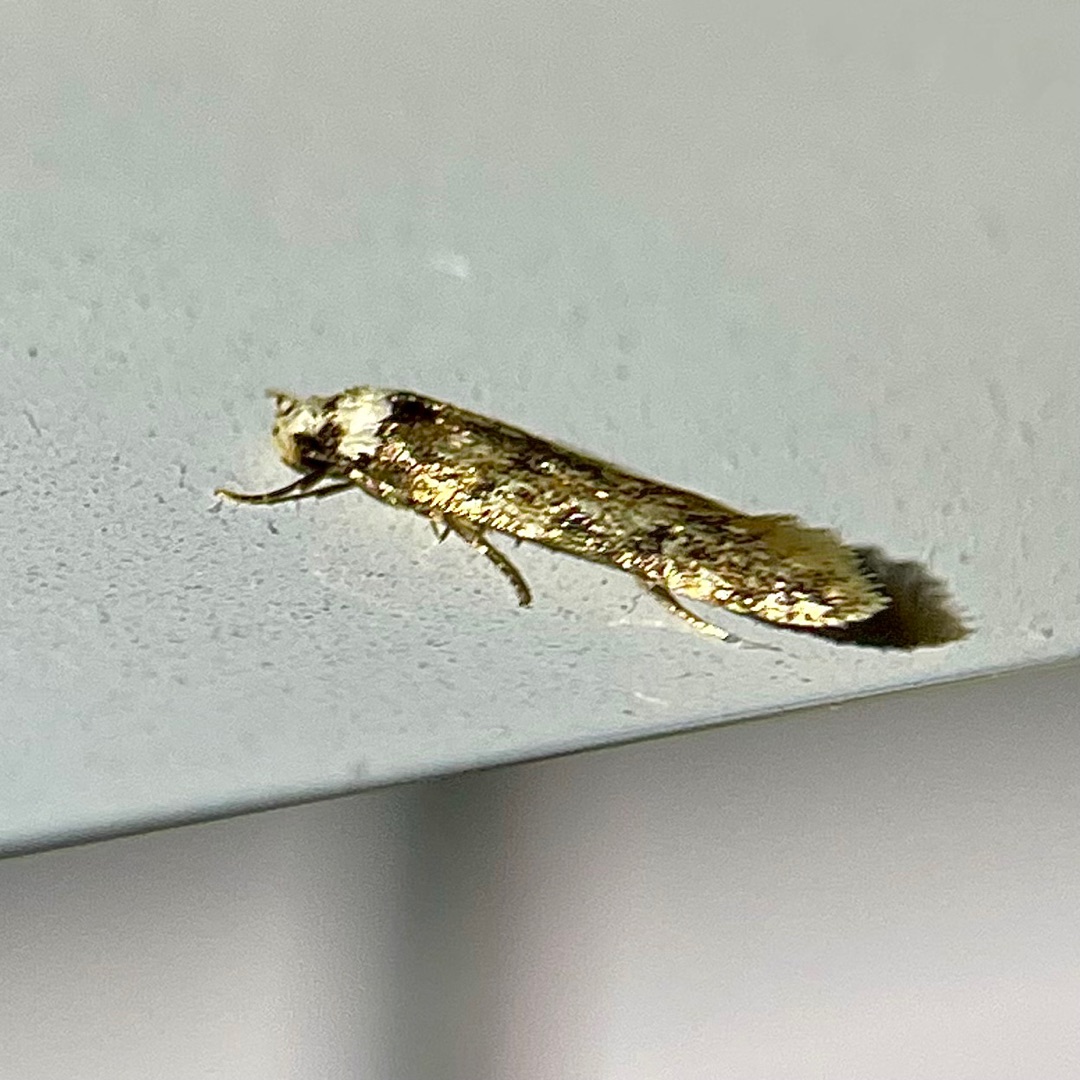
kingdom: Animalia
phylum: Arthropoda
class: Insecta
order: Lepidoptera
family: Oecophoridae
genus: Endrosis
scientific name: Endrosis sarcitrella
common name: Klistermøl
